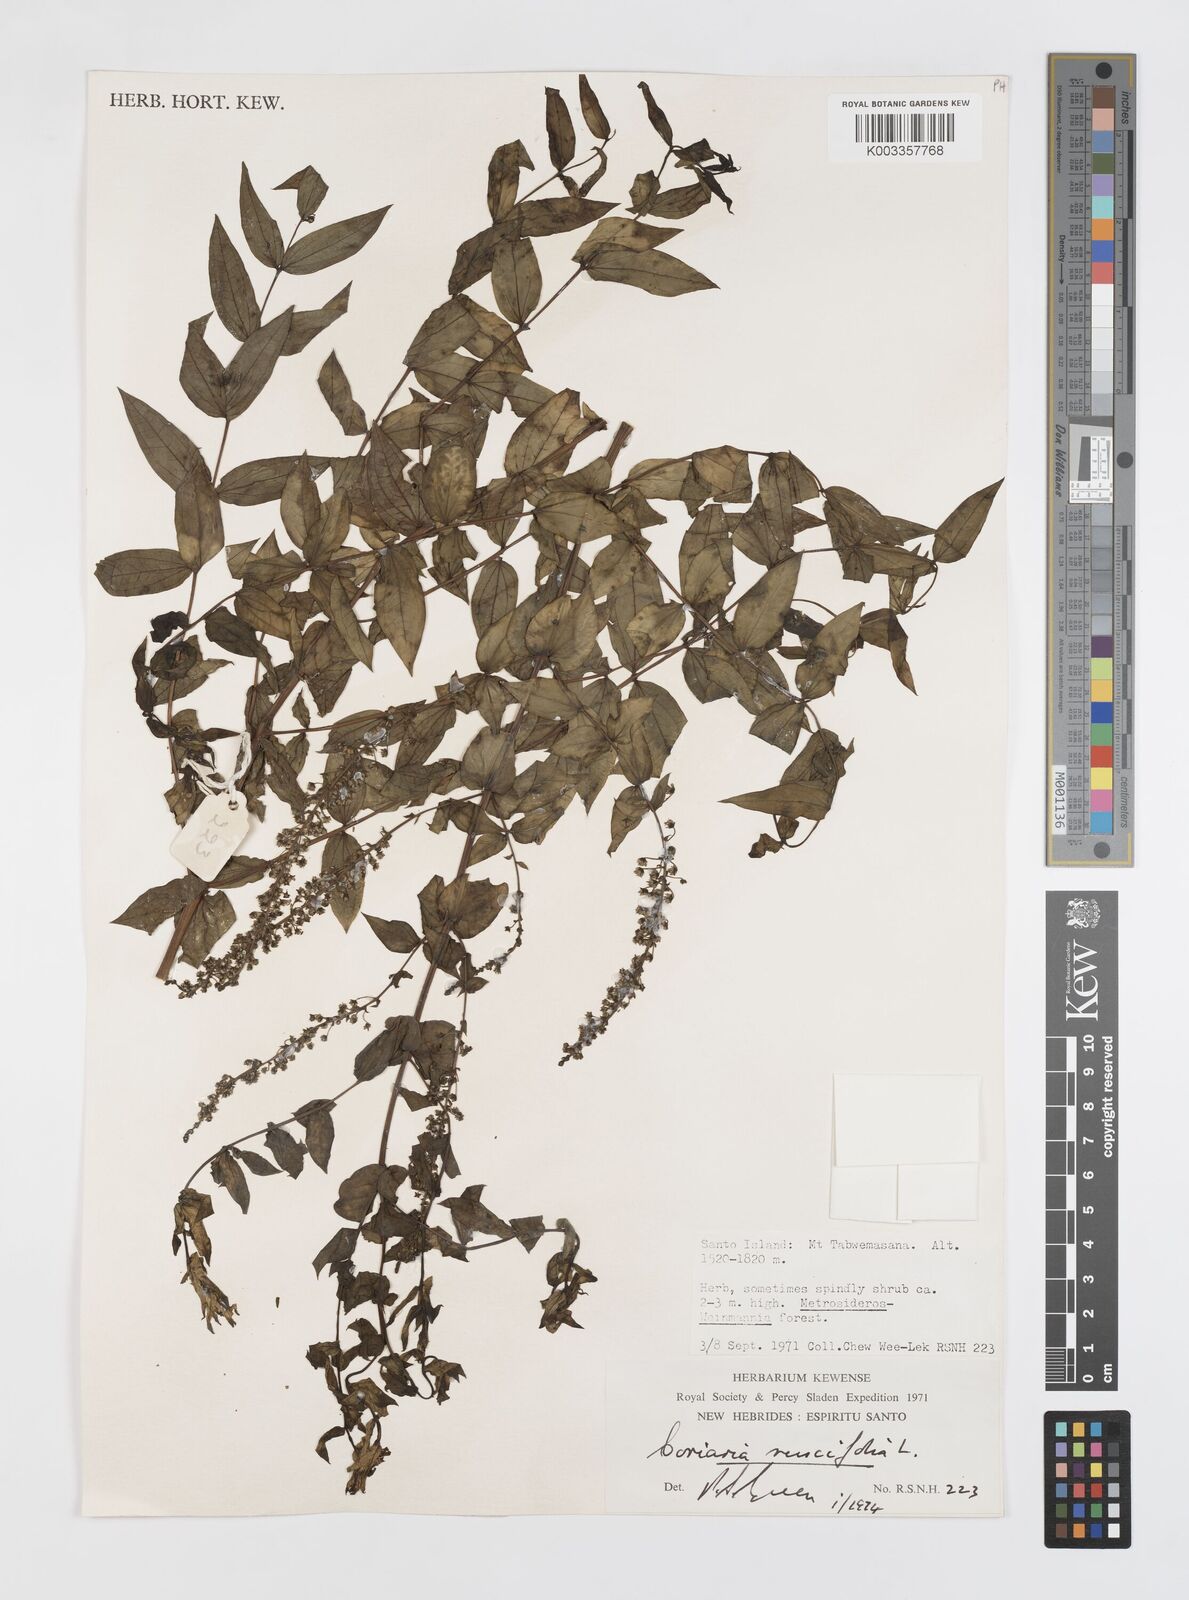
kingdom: Plantae
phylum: Tracheophyta
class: Magnoliopsida
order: Cucurbitales
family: Coriariaceae
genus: Coriaria
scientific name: Coriaria ruscifolia
